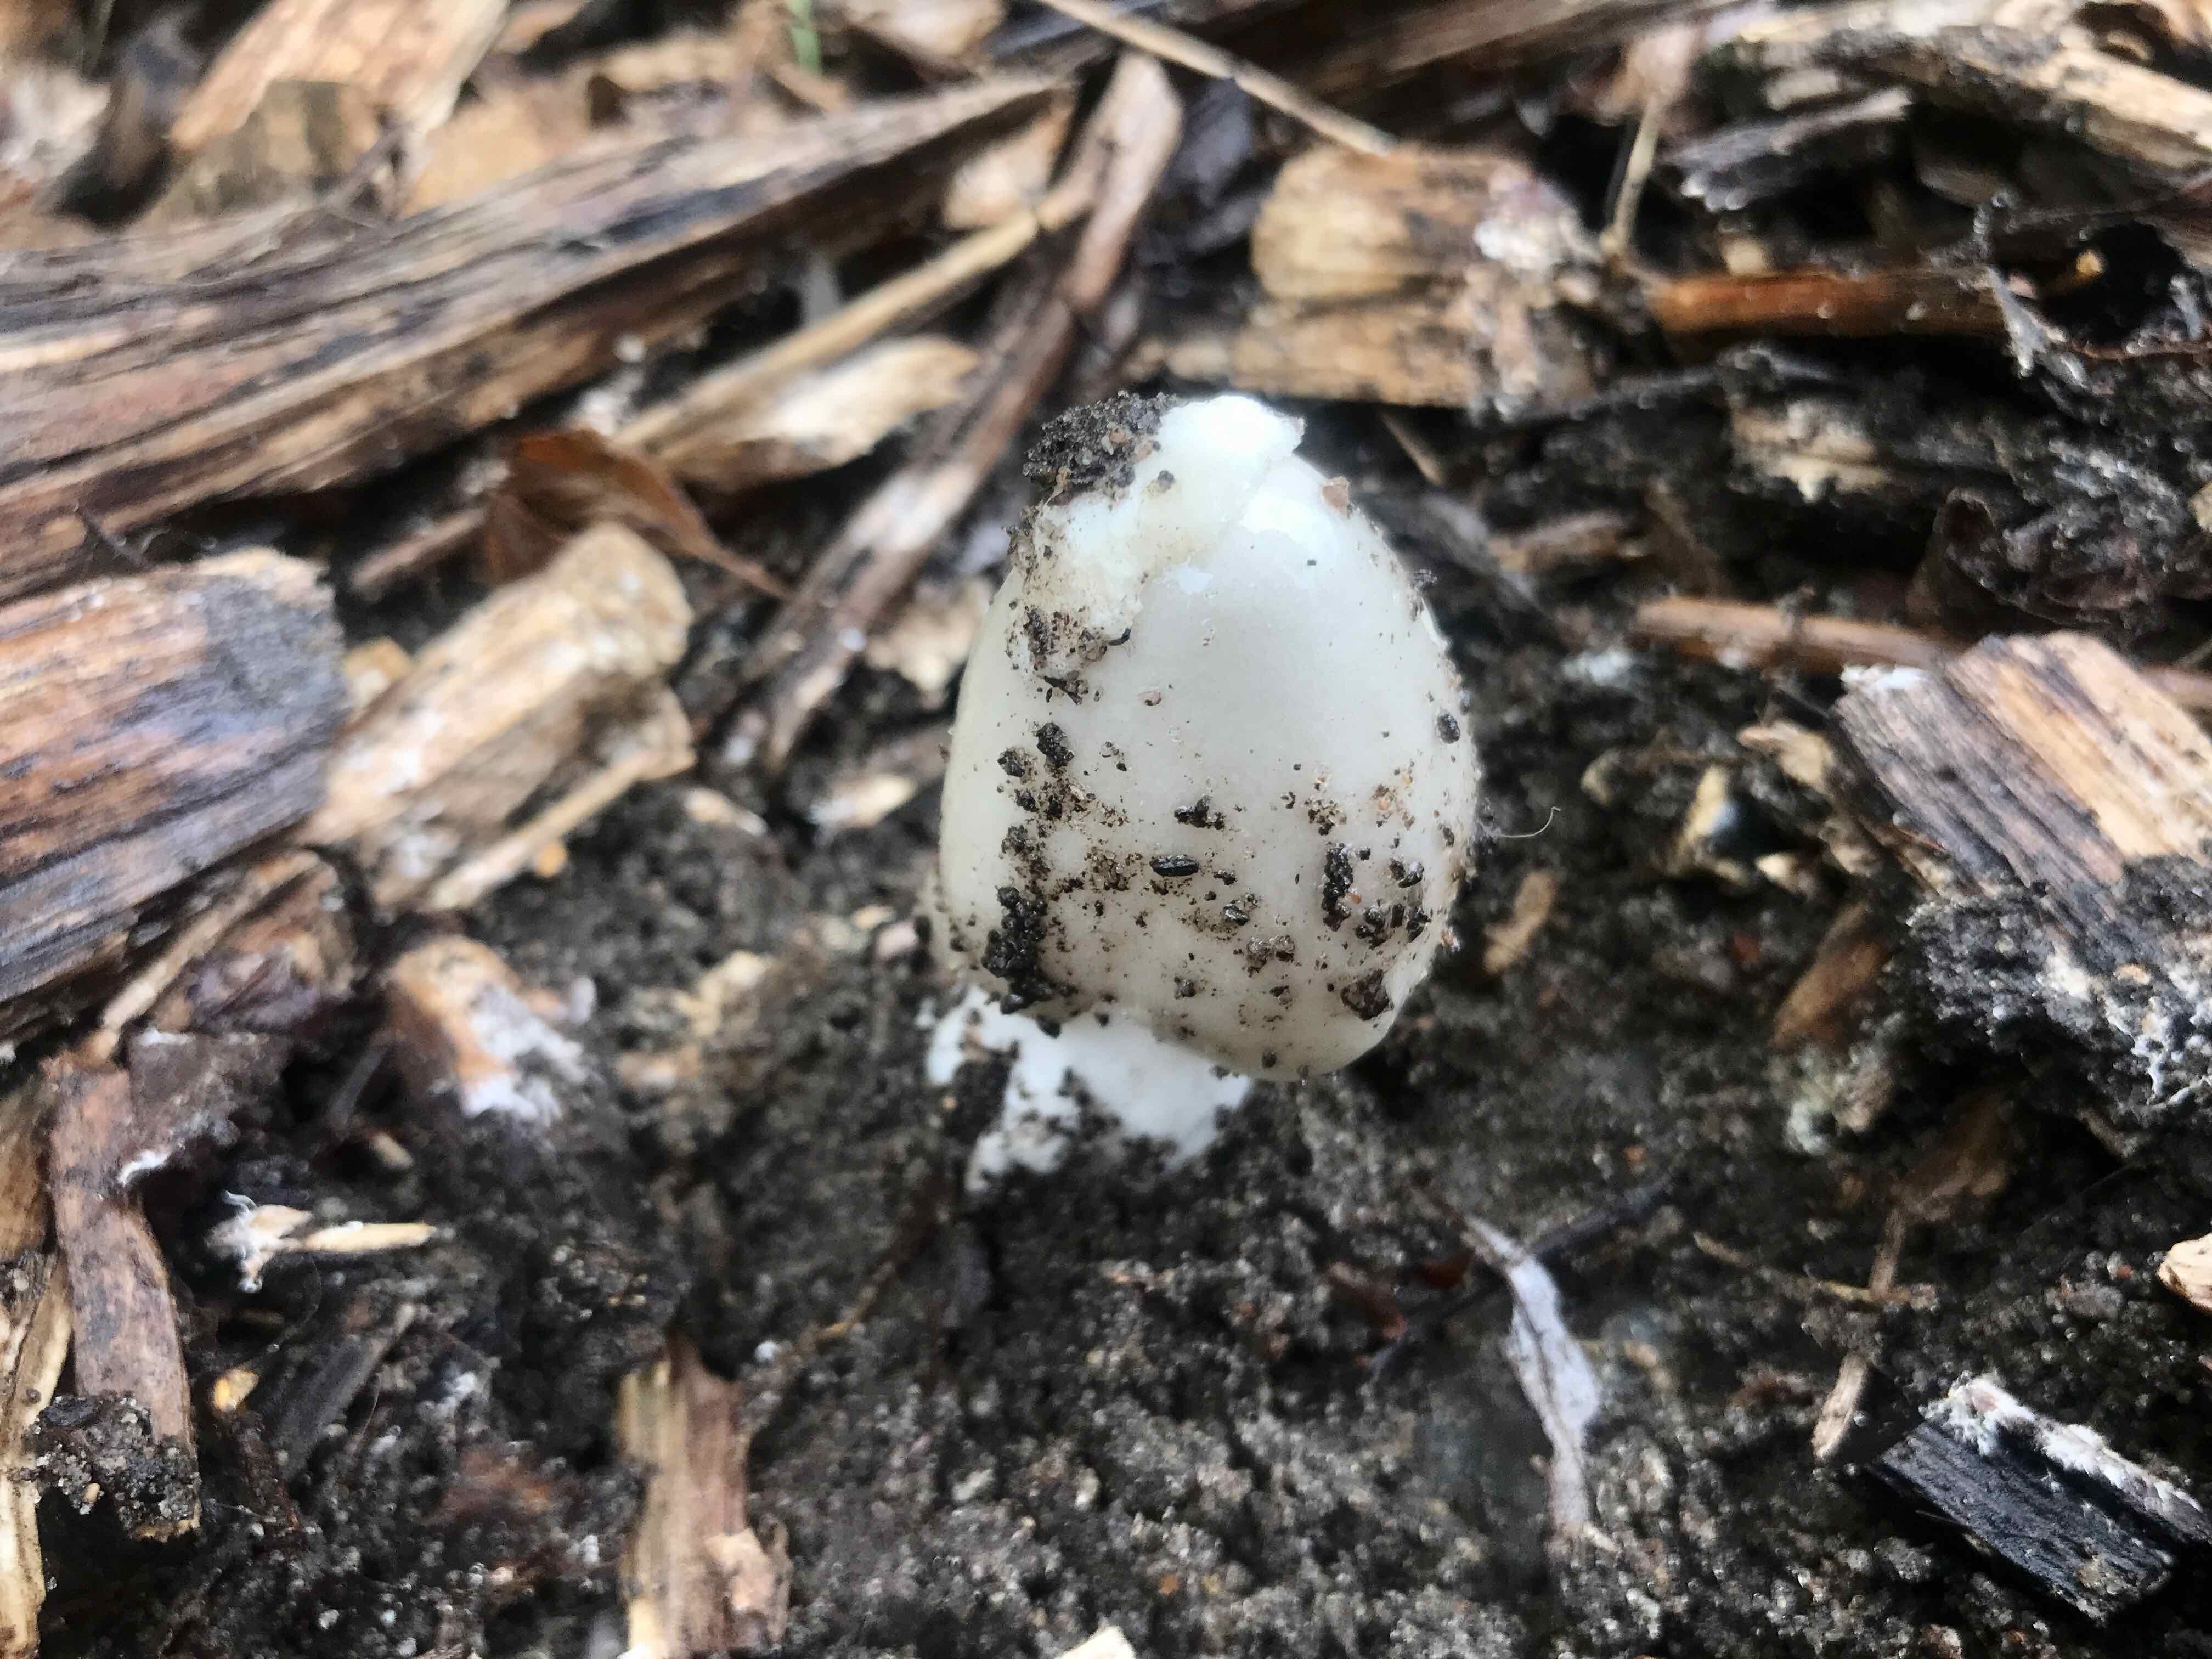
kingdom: Fungi
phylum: Basidiomycota
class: Agaricomycetes
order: Agaricales
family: Pluteaceae
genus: Volvopluteus
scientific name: Volvopluteus gloiocephalus
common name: høj posesvamp
